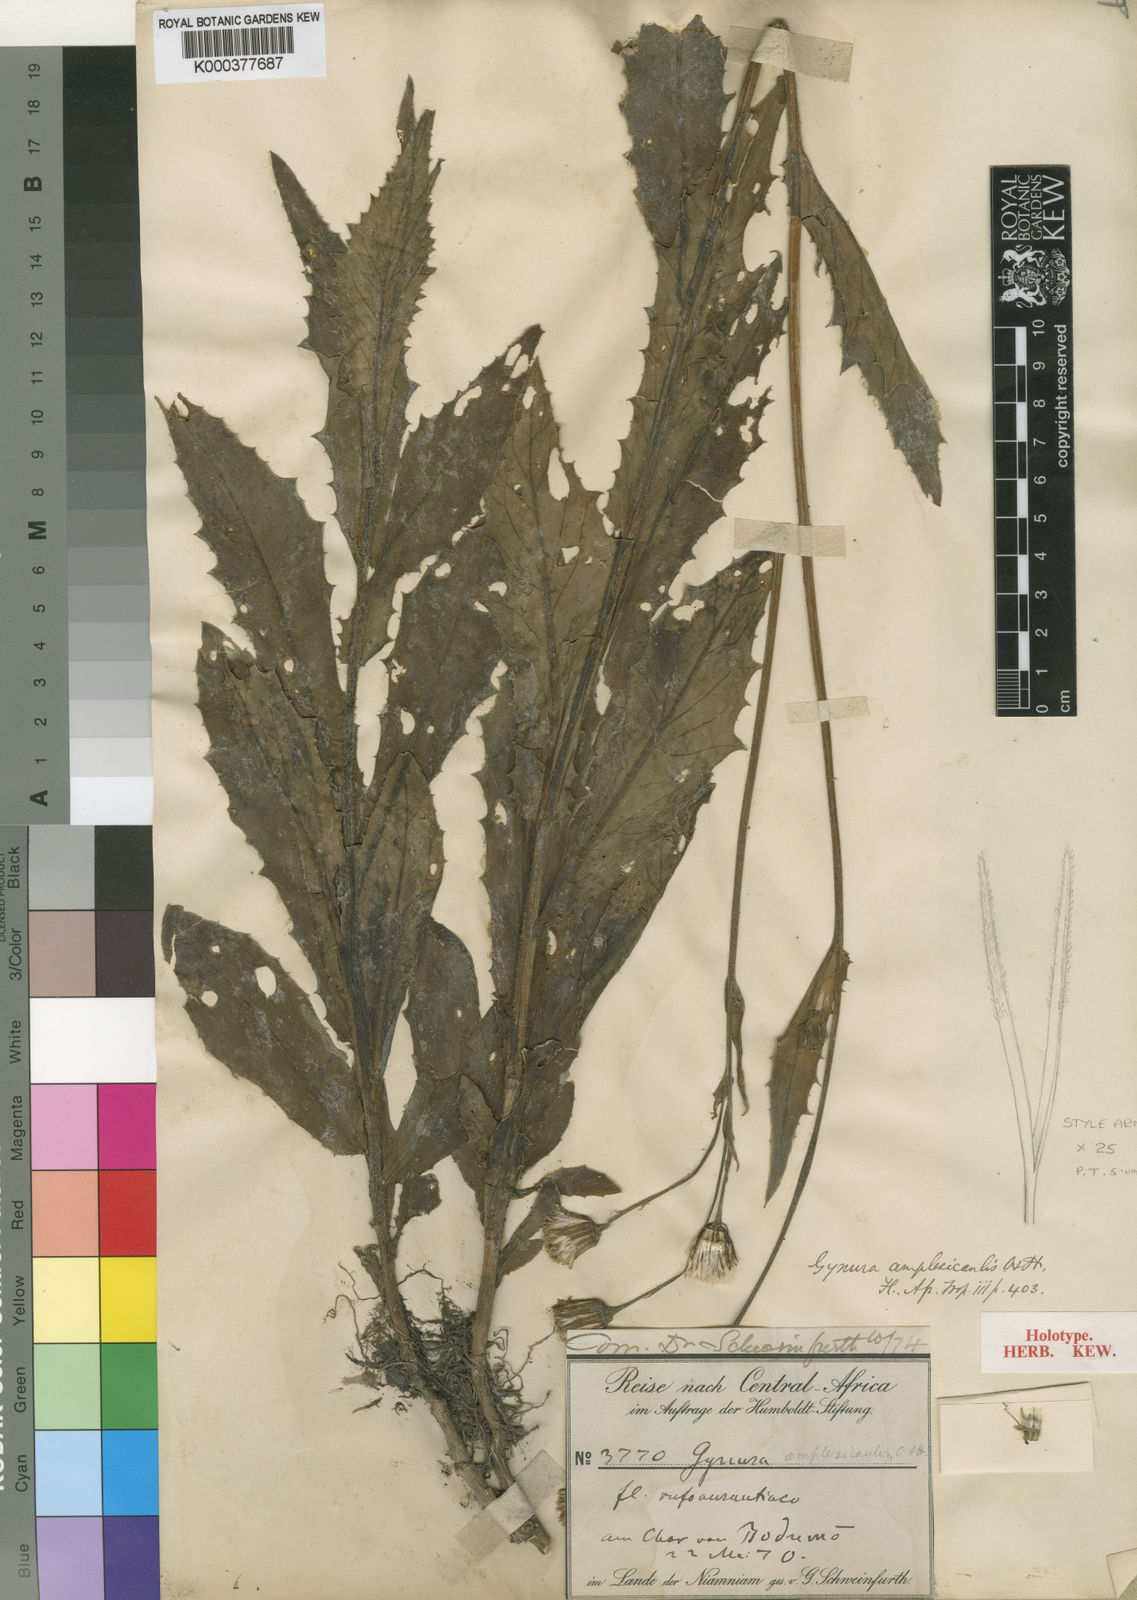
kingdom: Plantae
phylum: Tracheophyta
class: Magnoliopsida
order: Asterales
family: Asteraceae
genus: Gynura
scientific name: Gynura amplexicaulis
